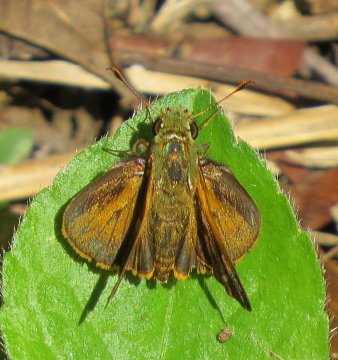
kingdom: Animalia
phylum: Arthropoda
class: Insecta
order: Lepidoptera
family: Hesperiidae
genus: Choranthus
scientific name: Choranthus borincona
